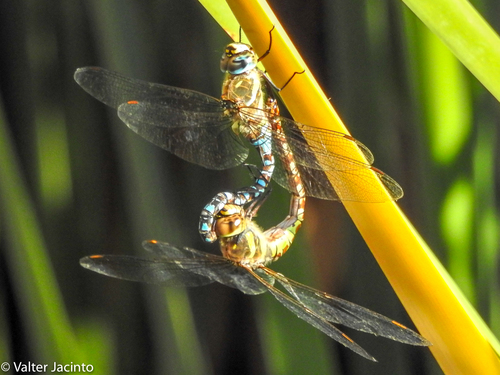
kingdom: Animalia
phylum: Arthropoda
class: Insecta
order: Odonata
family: Aeshnidae
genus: Aeshna
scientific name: Aeshna mixta
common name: Migrant hawker
